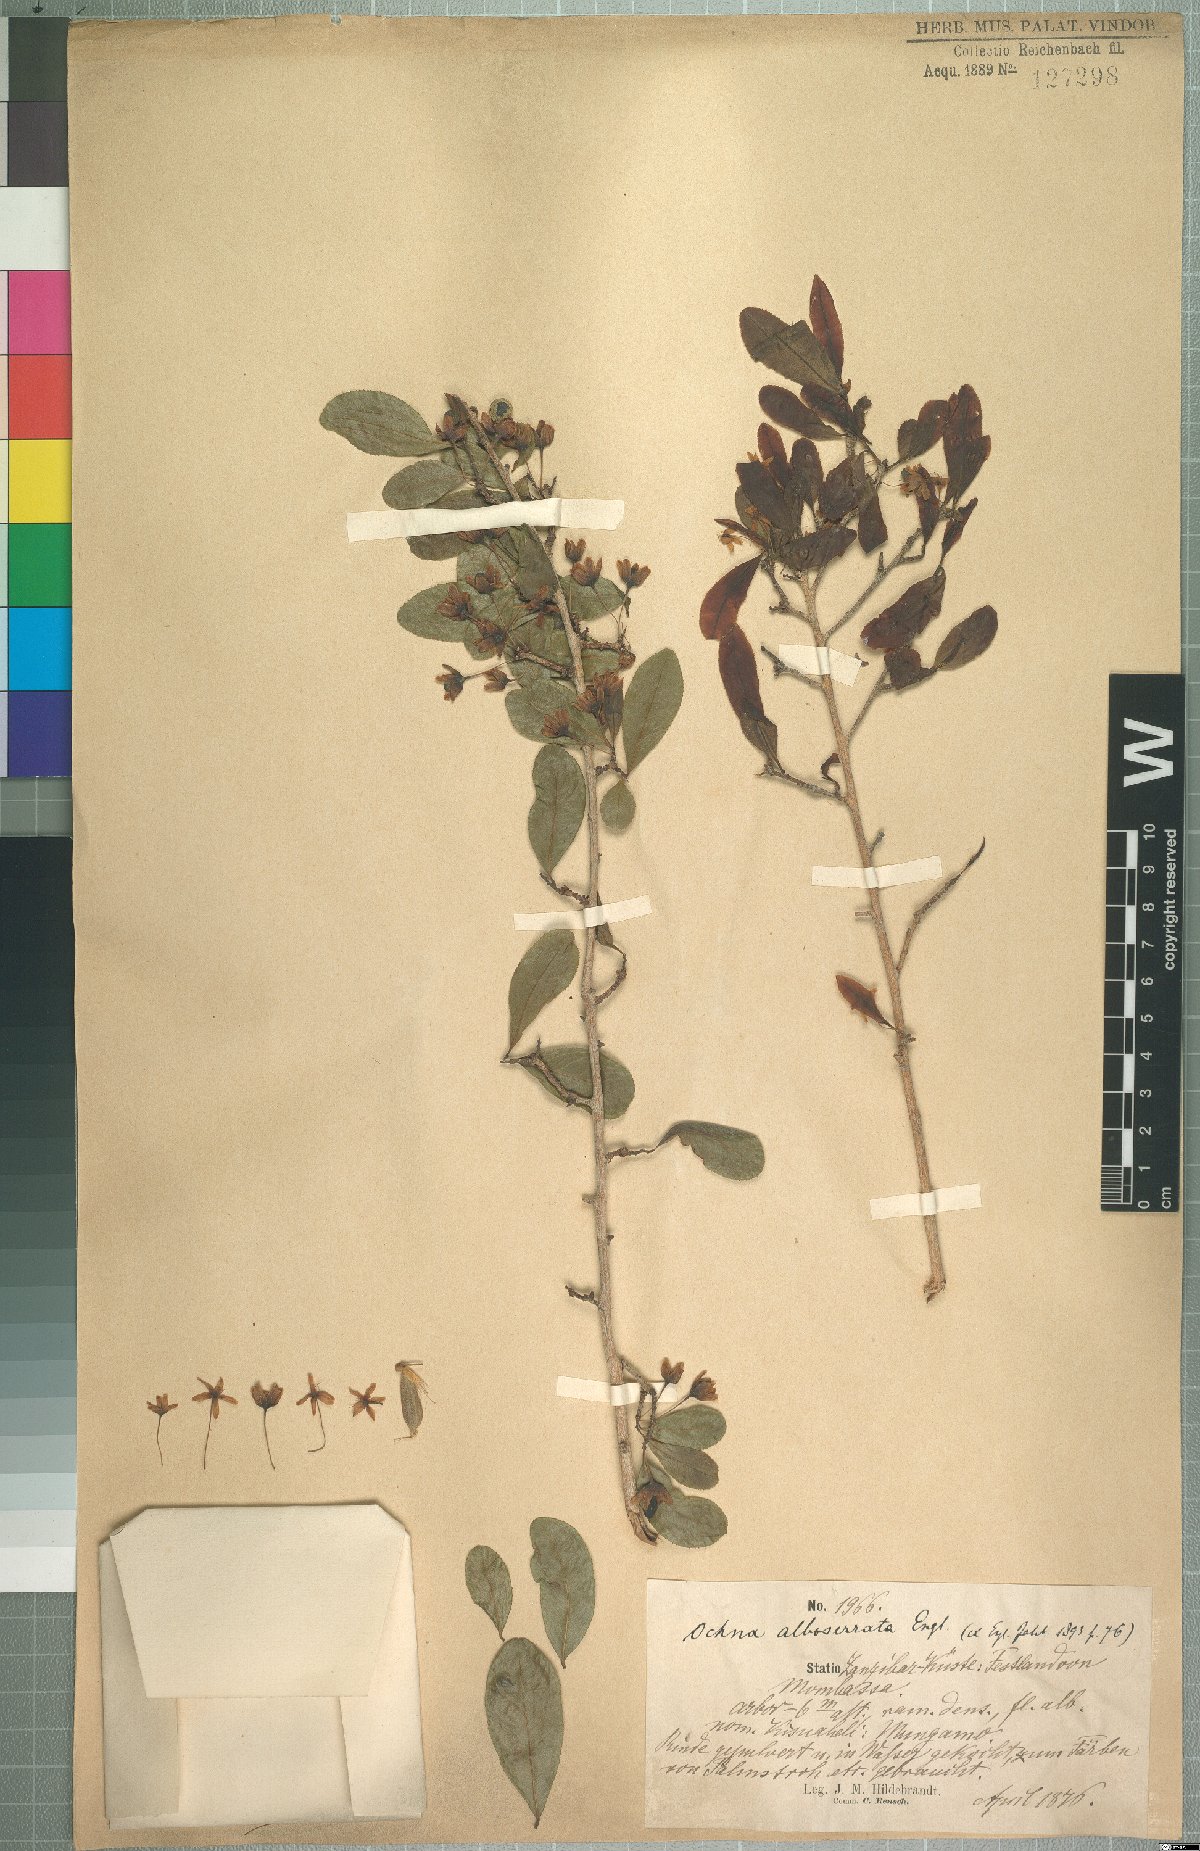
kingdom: Plantae
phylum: Tracheophyta
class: Magnoliopsida
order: Malpighiales
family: Ochnaceae
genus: Brackenridgea
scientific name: Brackenridgea zanguebarica
